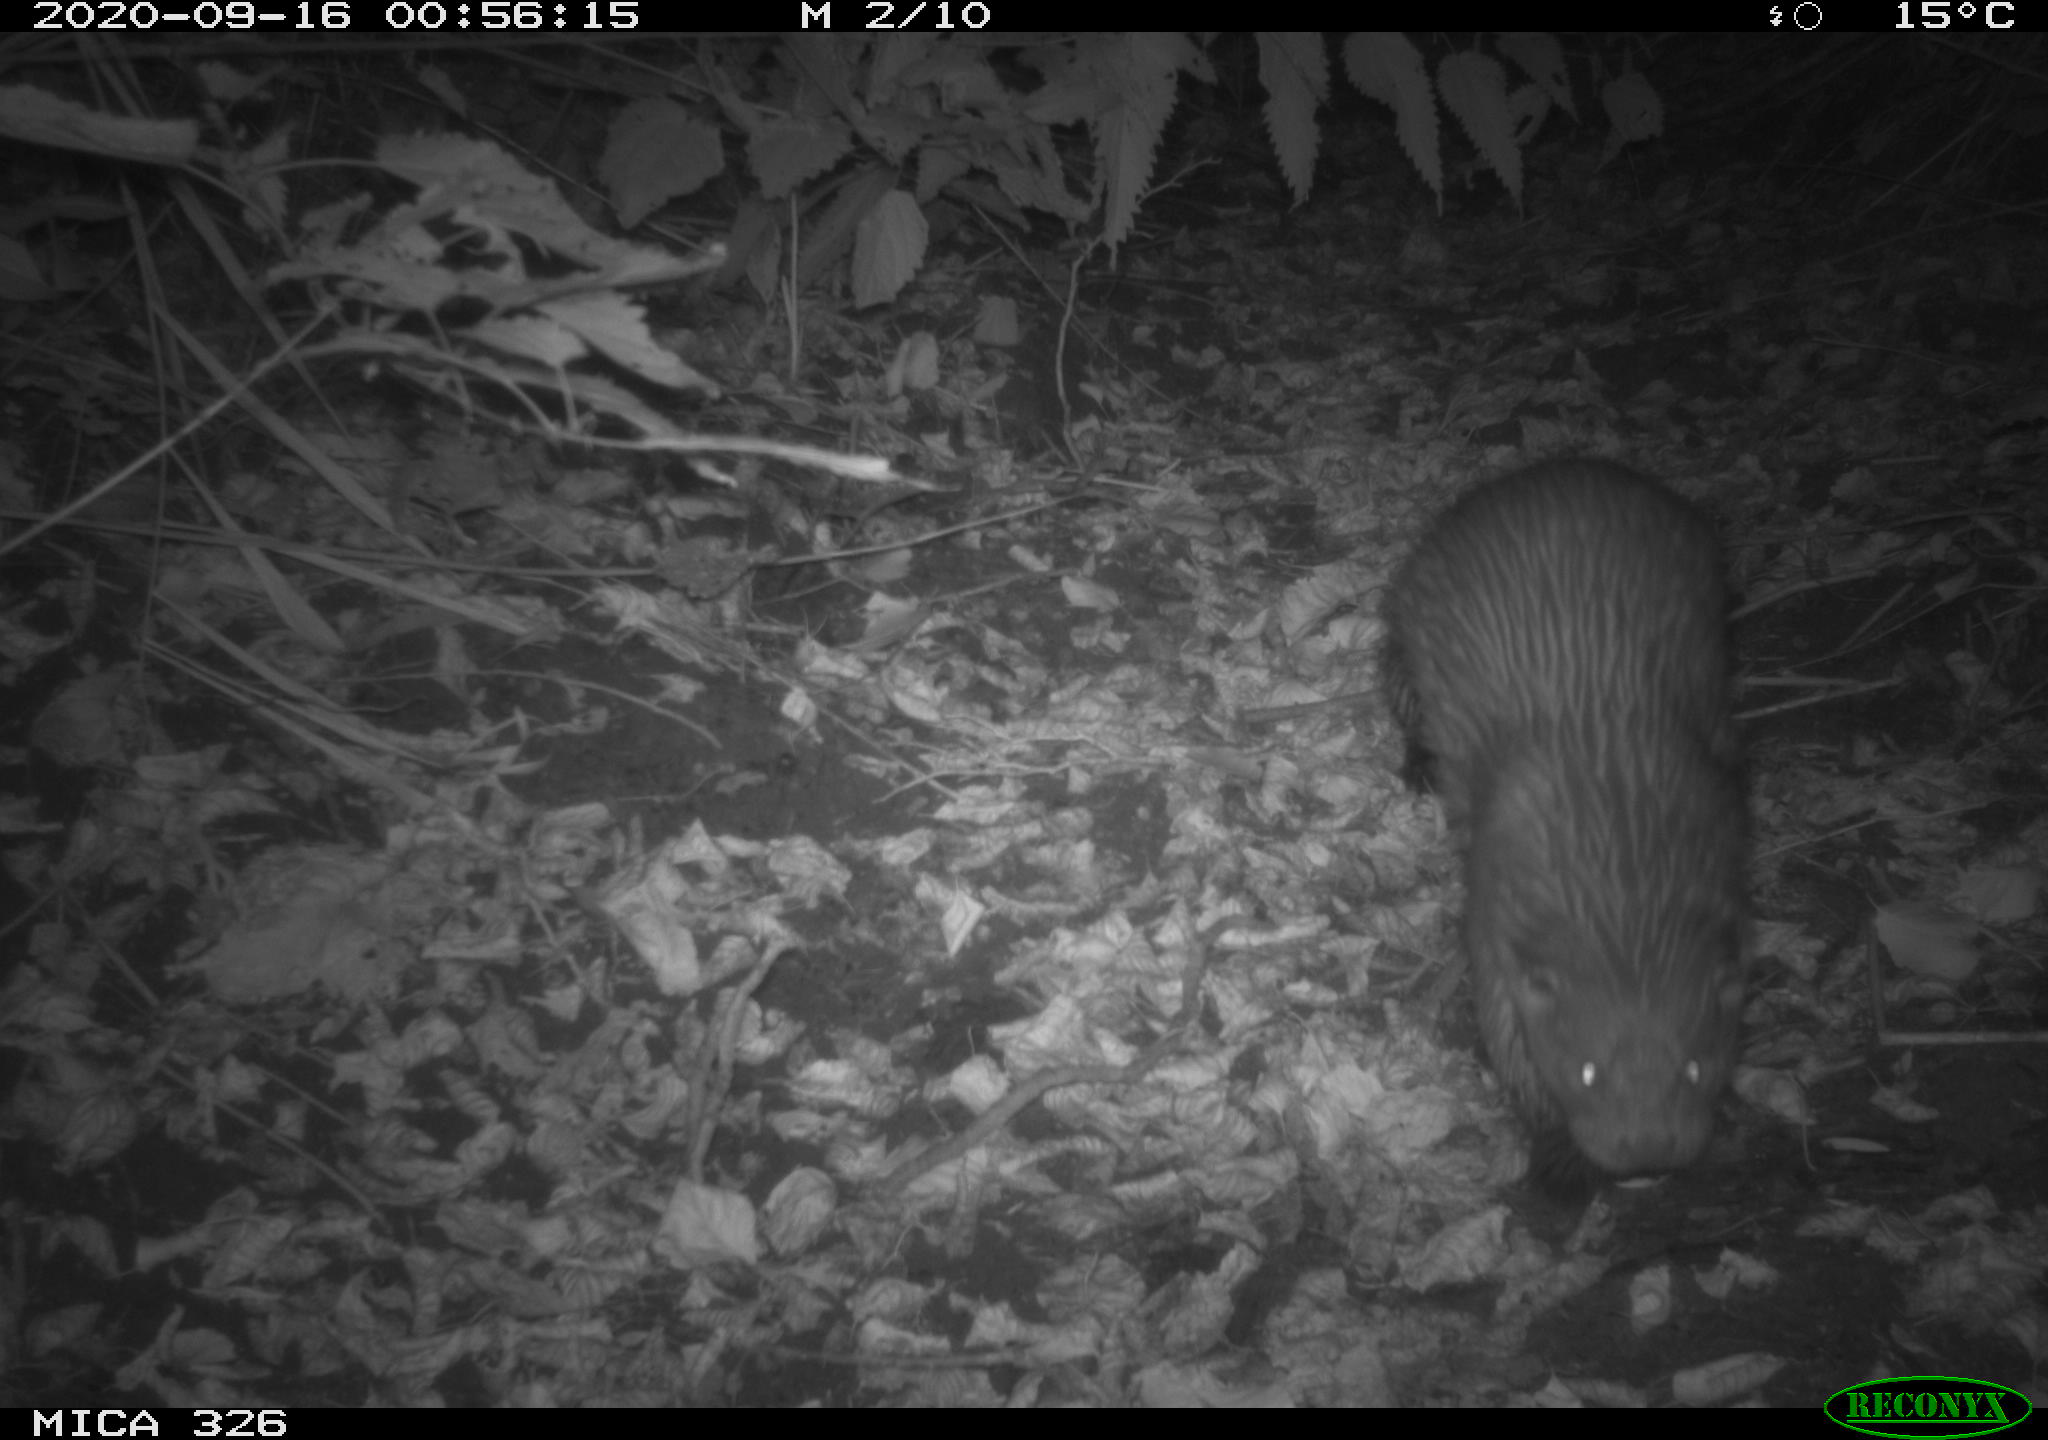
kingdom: Animalia
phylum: Chordata
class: Mammalia
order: Carnivora
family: Mustelidae
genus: Lutra
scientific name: Lutra lutra
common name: European otter
